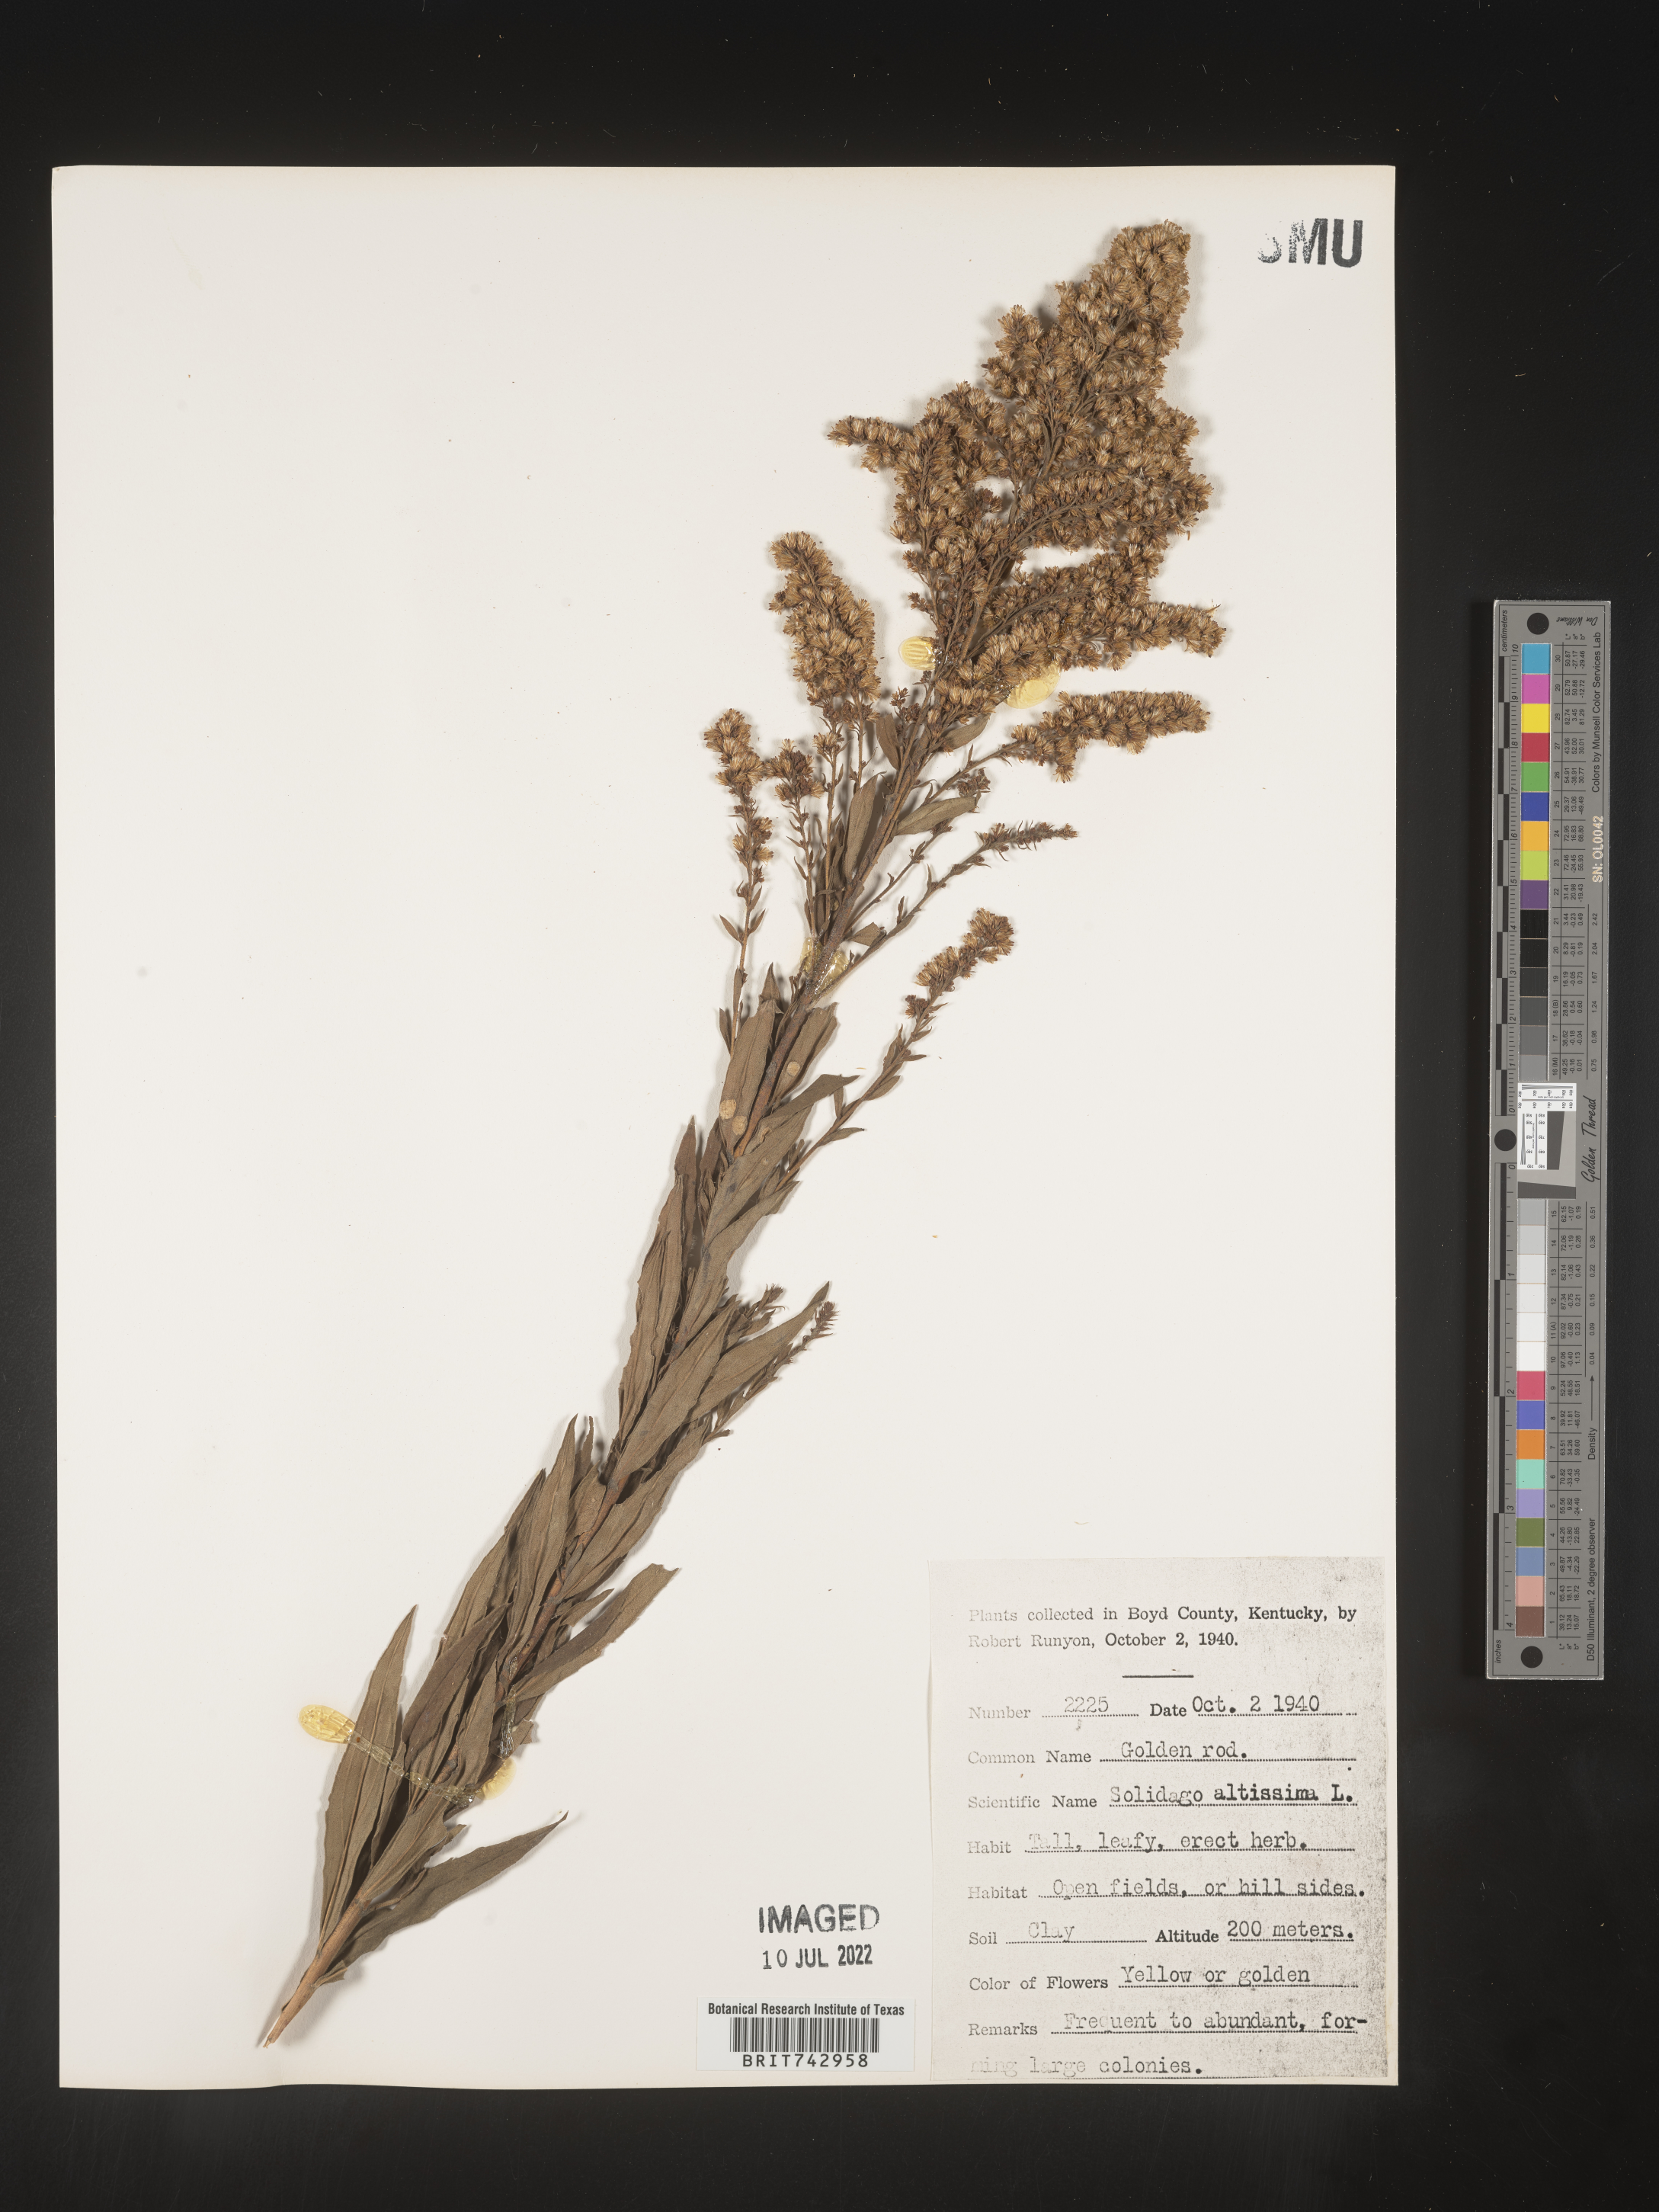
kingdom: Plantae
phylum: Tracheophyta
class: Magnoliopsida
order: Asterales
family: Asteraceae
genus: Solidago
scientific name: Solidago altissima
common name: Late goldenrod
